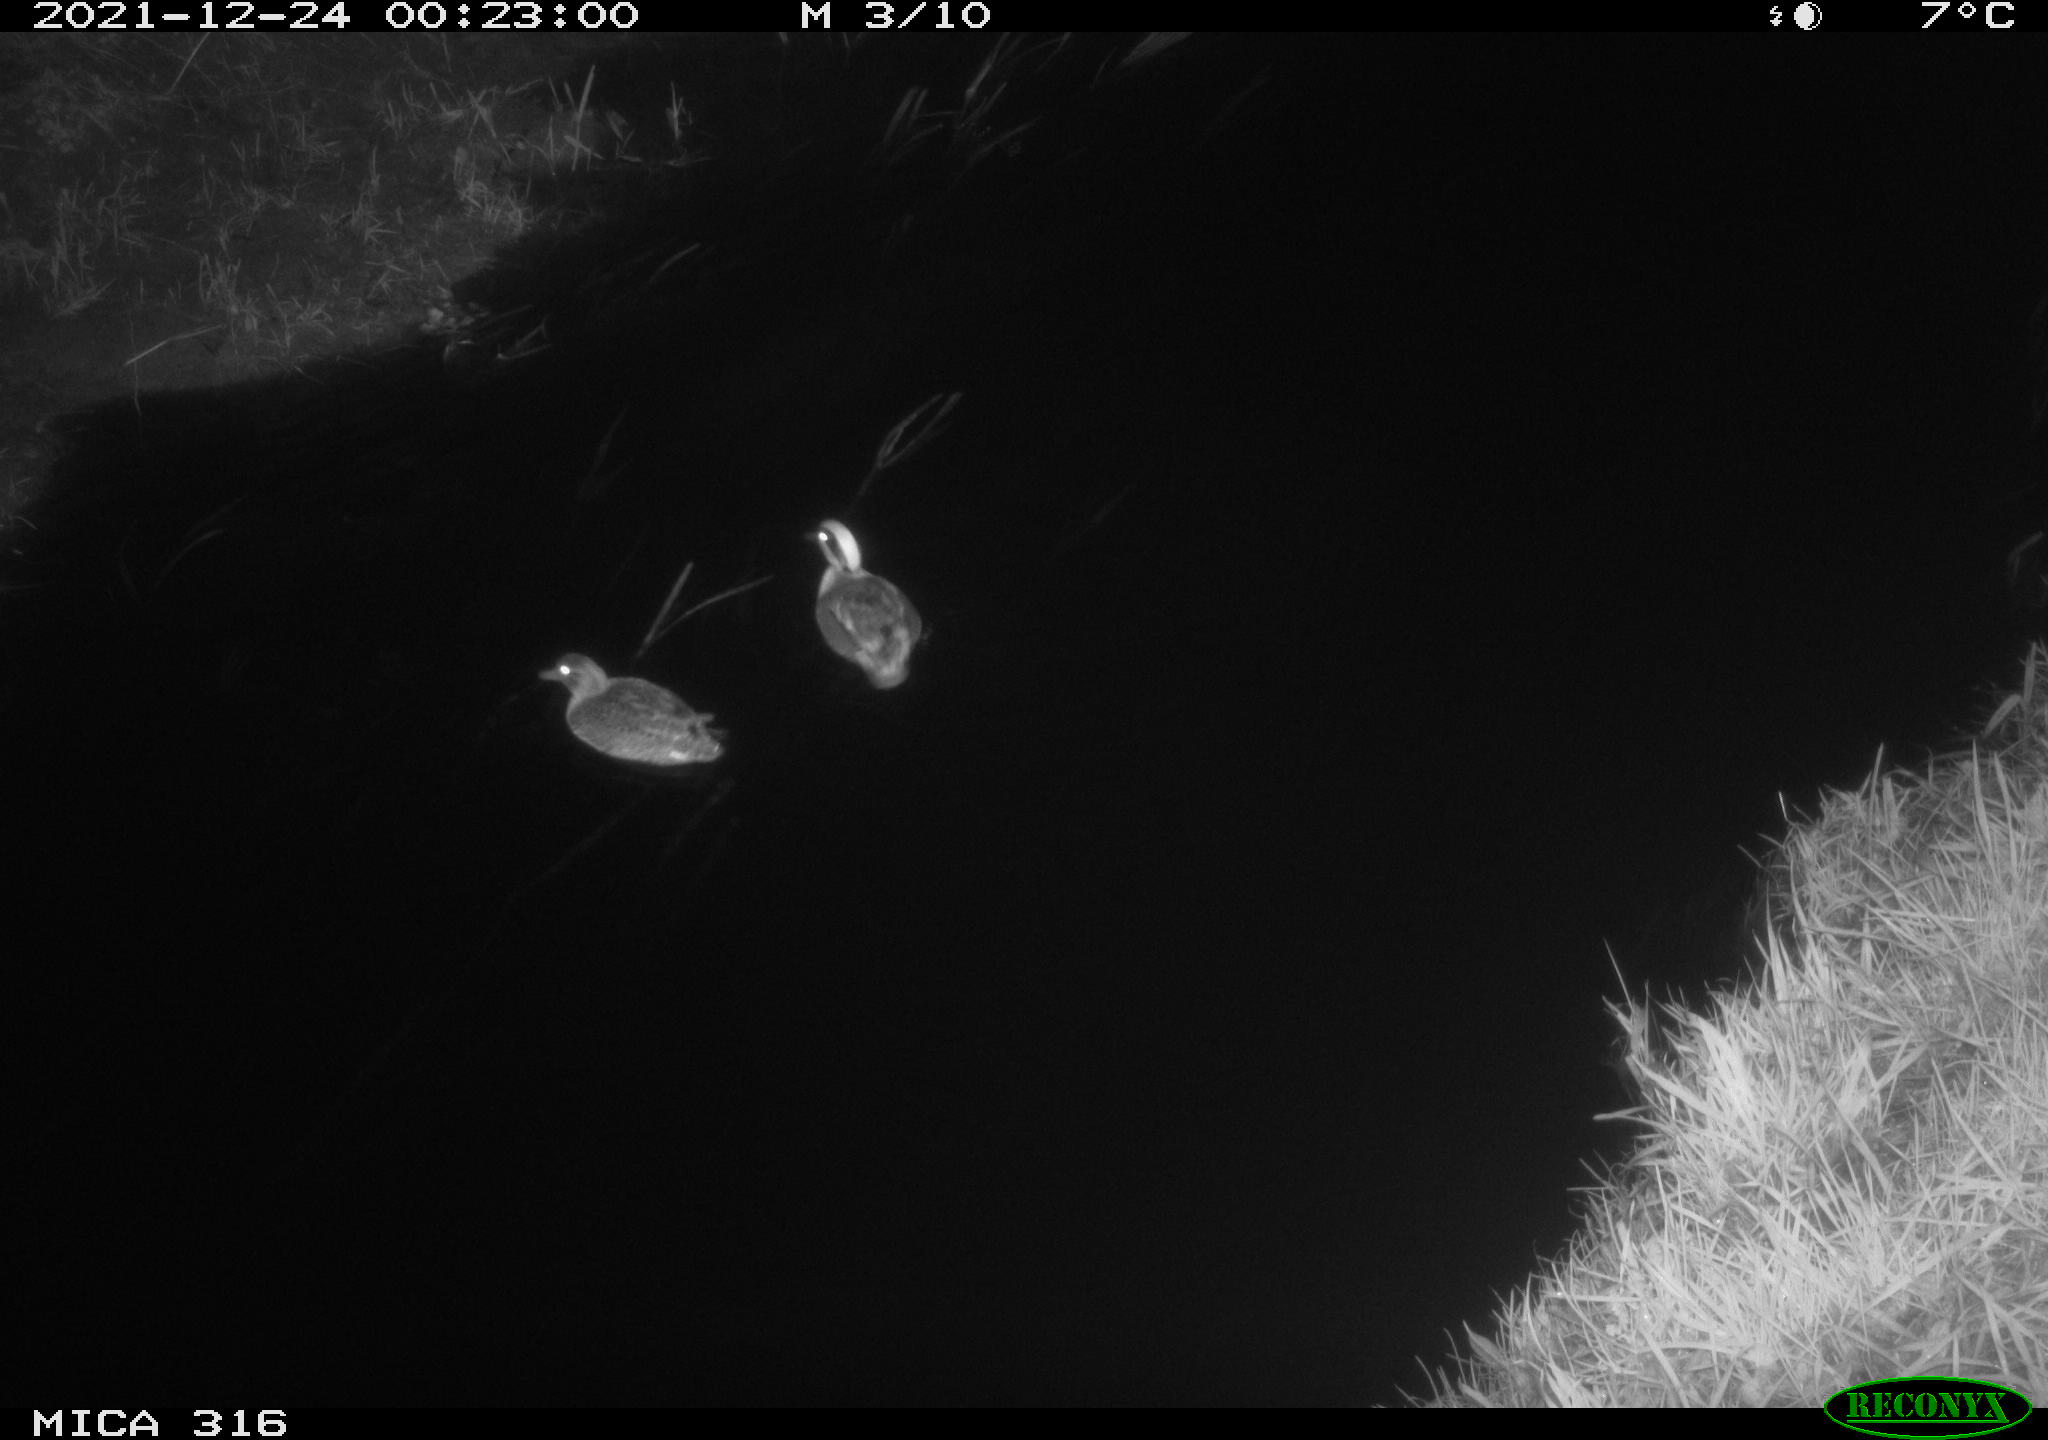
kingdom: Animalia
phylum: Chordata
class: Aves
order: Anseriformes
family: Anatidae
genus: Anas
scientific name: Anas
